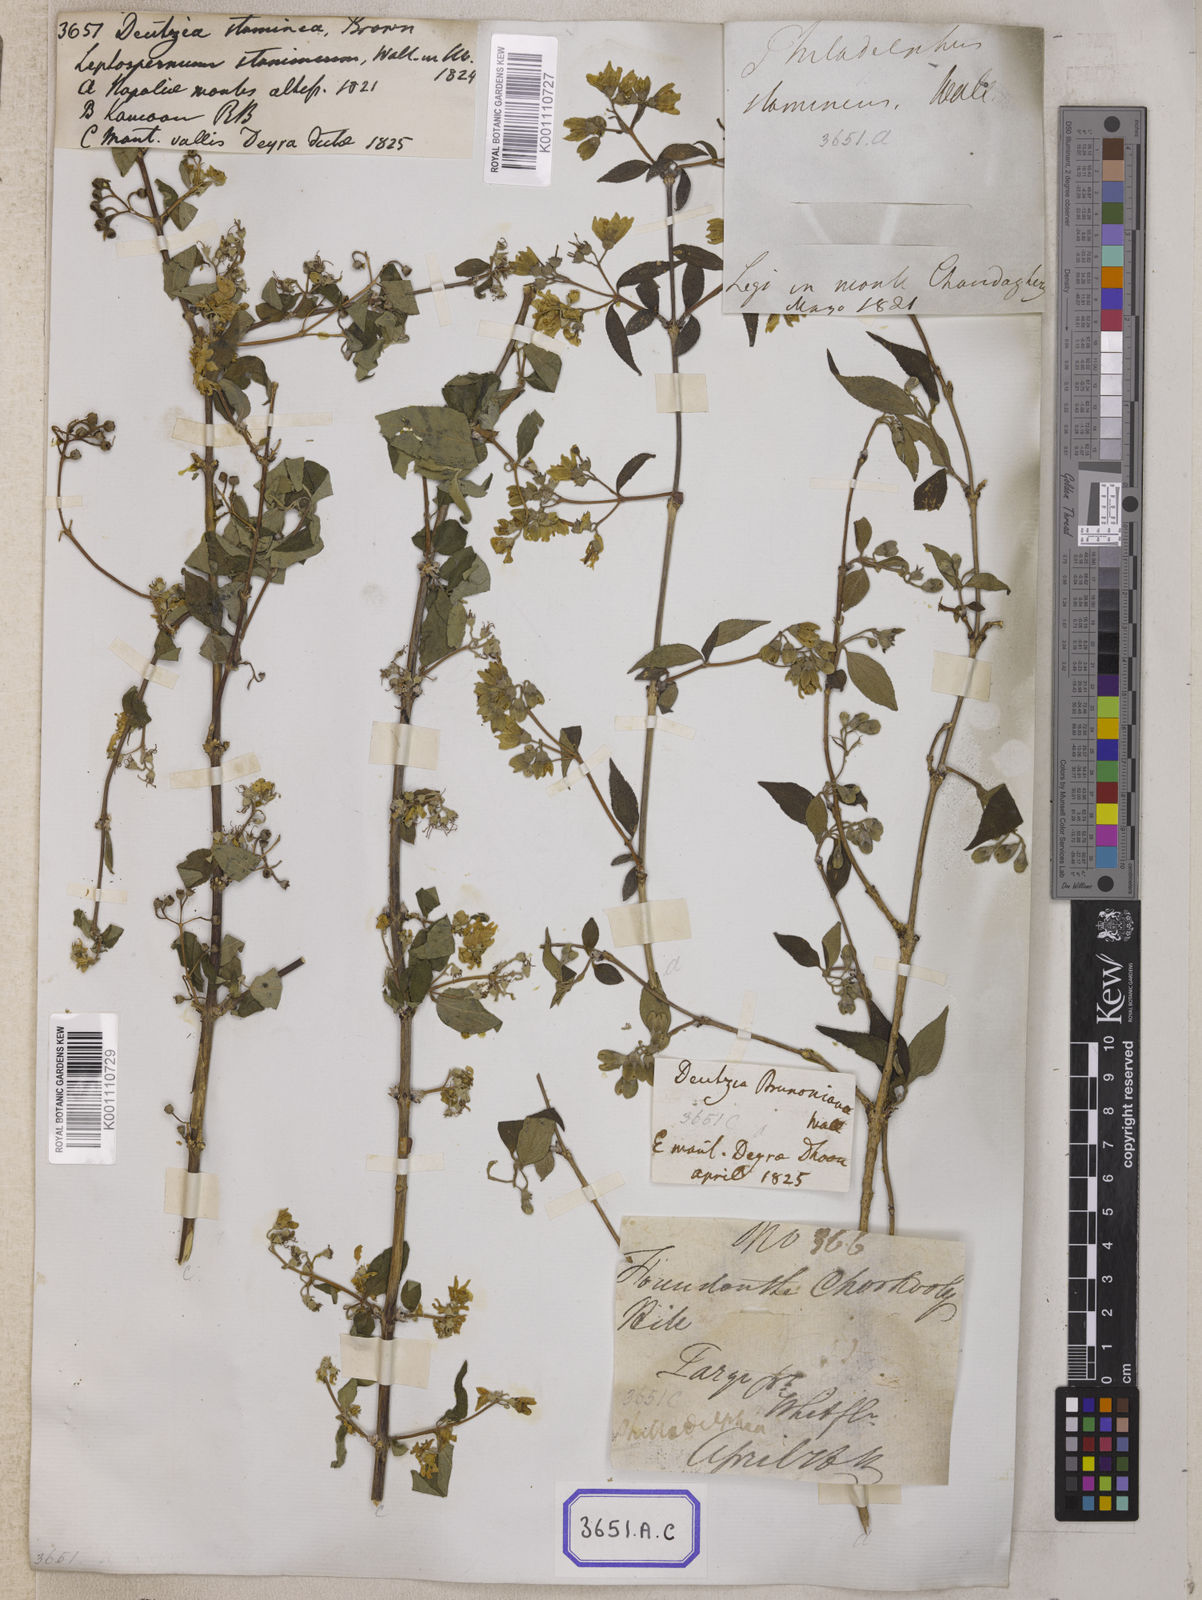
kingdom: Plantae
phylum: Tracheophyta
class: Magnoliopsida
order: Cornales
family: Hydrangeaceae
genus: Deutzia
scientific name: Deutzia
